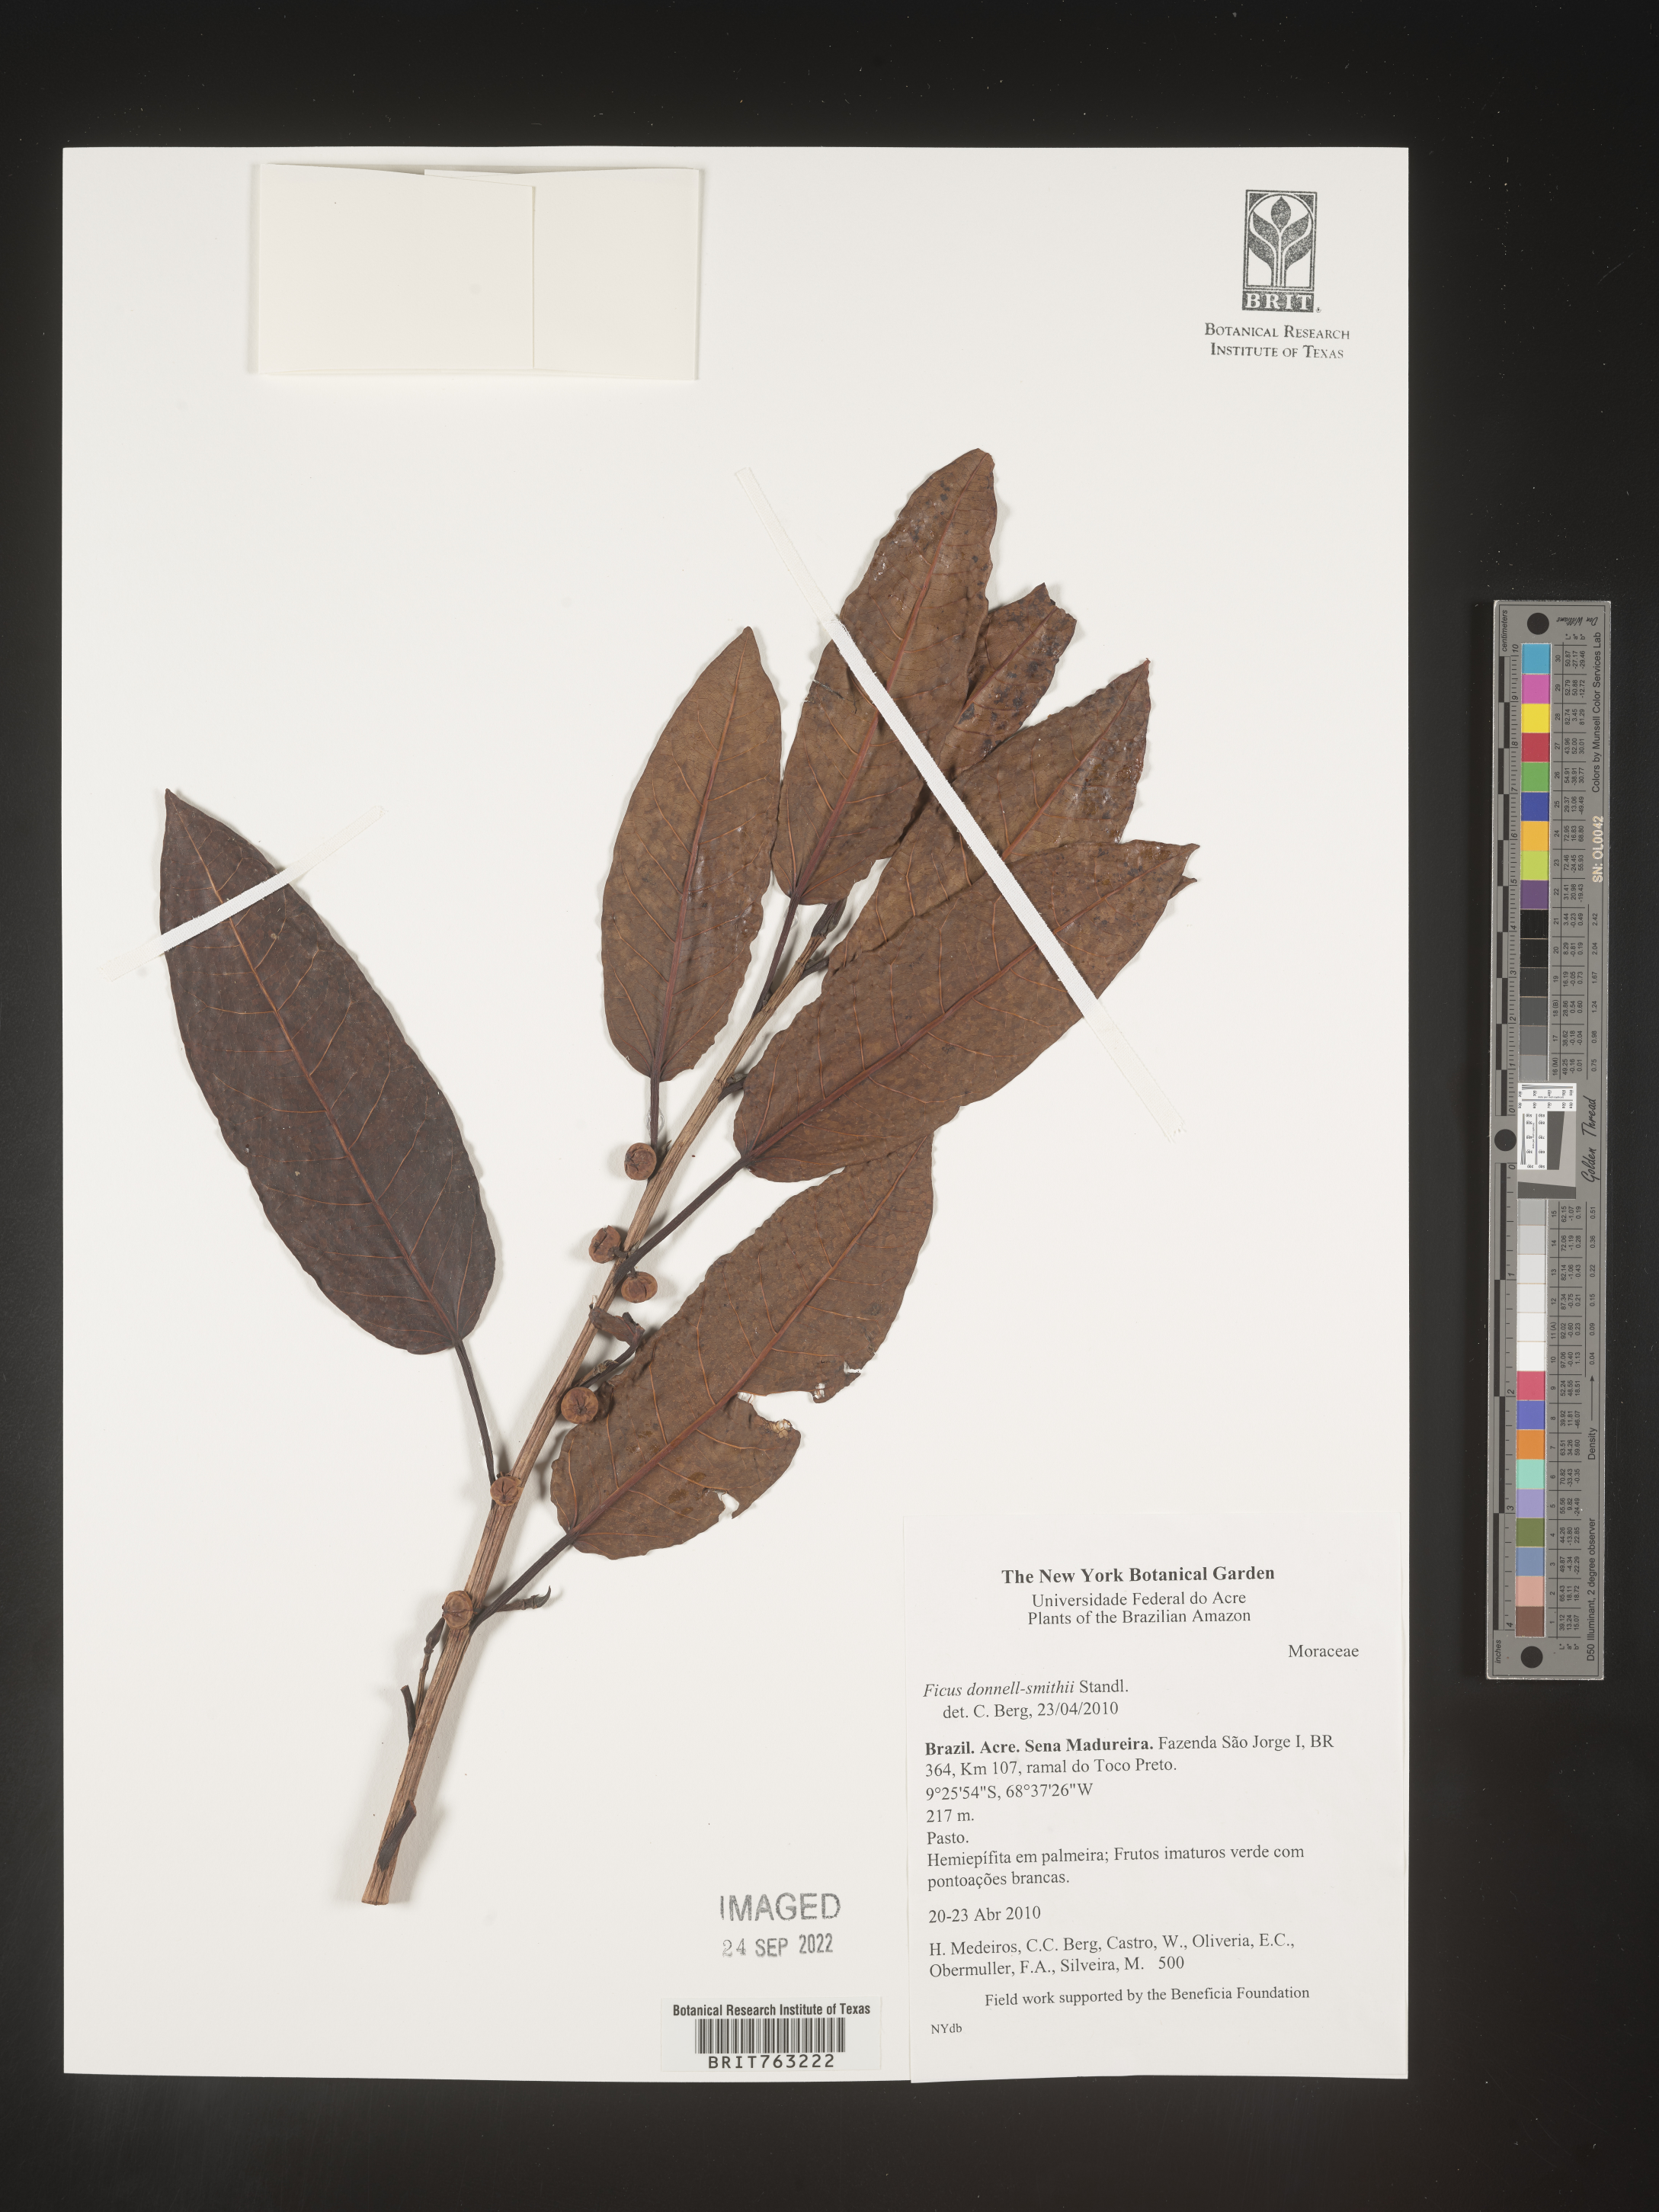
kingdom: Plantae
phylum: Tracheophyta
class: Magnoliopsida
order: Rosales
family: Moraceae
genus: Ficus
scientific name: Ficus donnell-smithii
